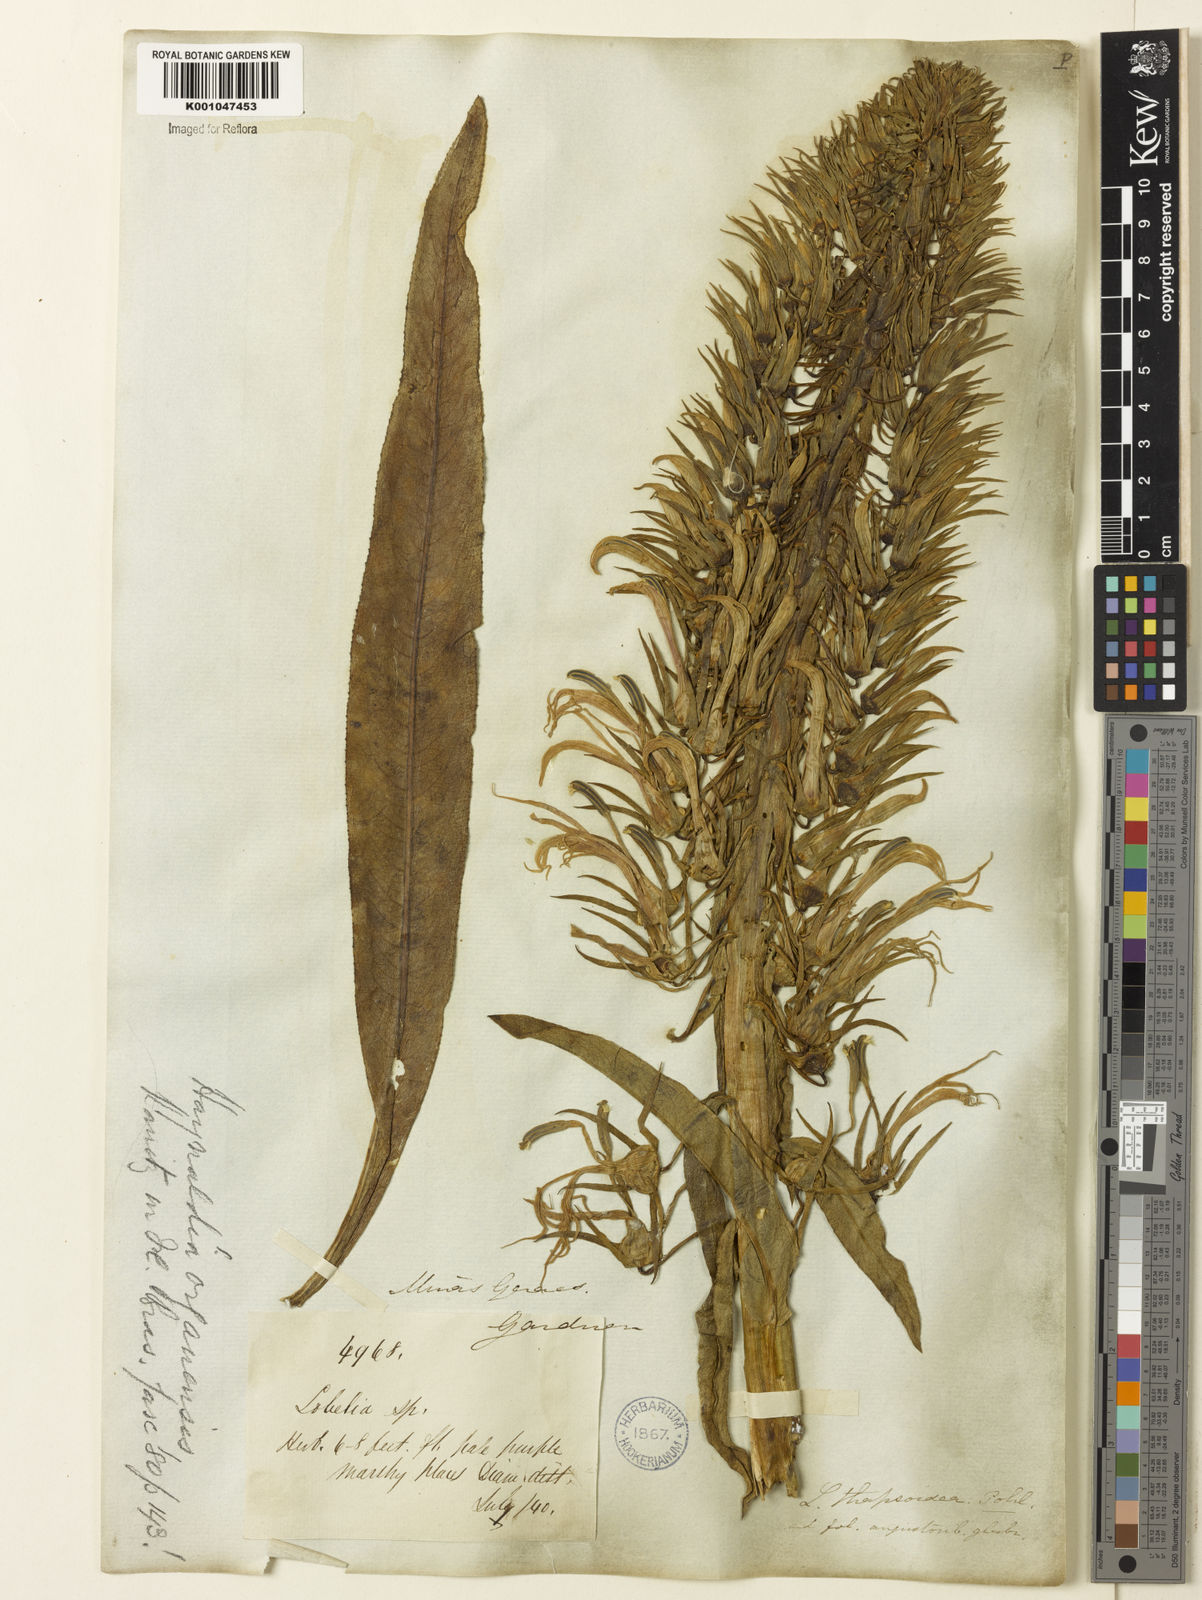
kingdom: Plantae
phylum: Tracheophyta
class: Magnoliopsida
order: Asterales
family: Campanulaceae
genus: Lobelia
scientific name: Lobelia organensis
